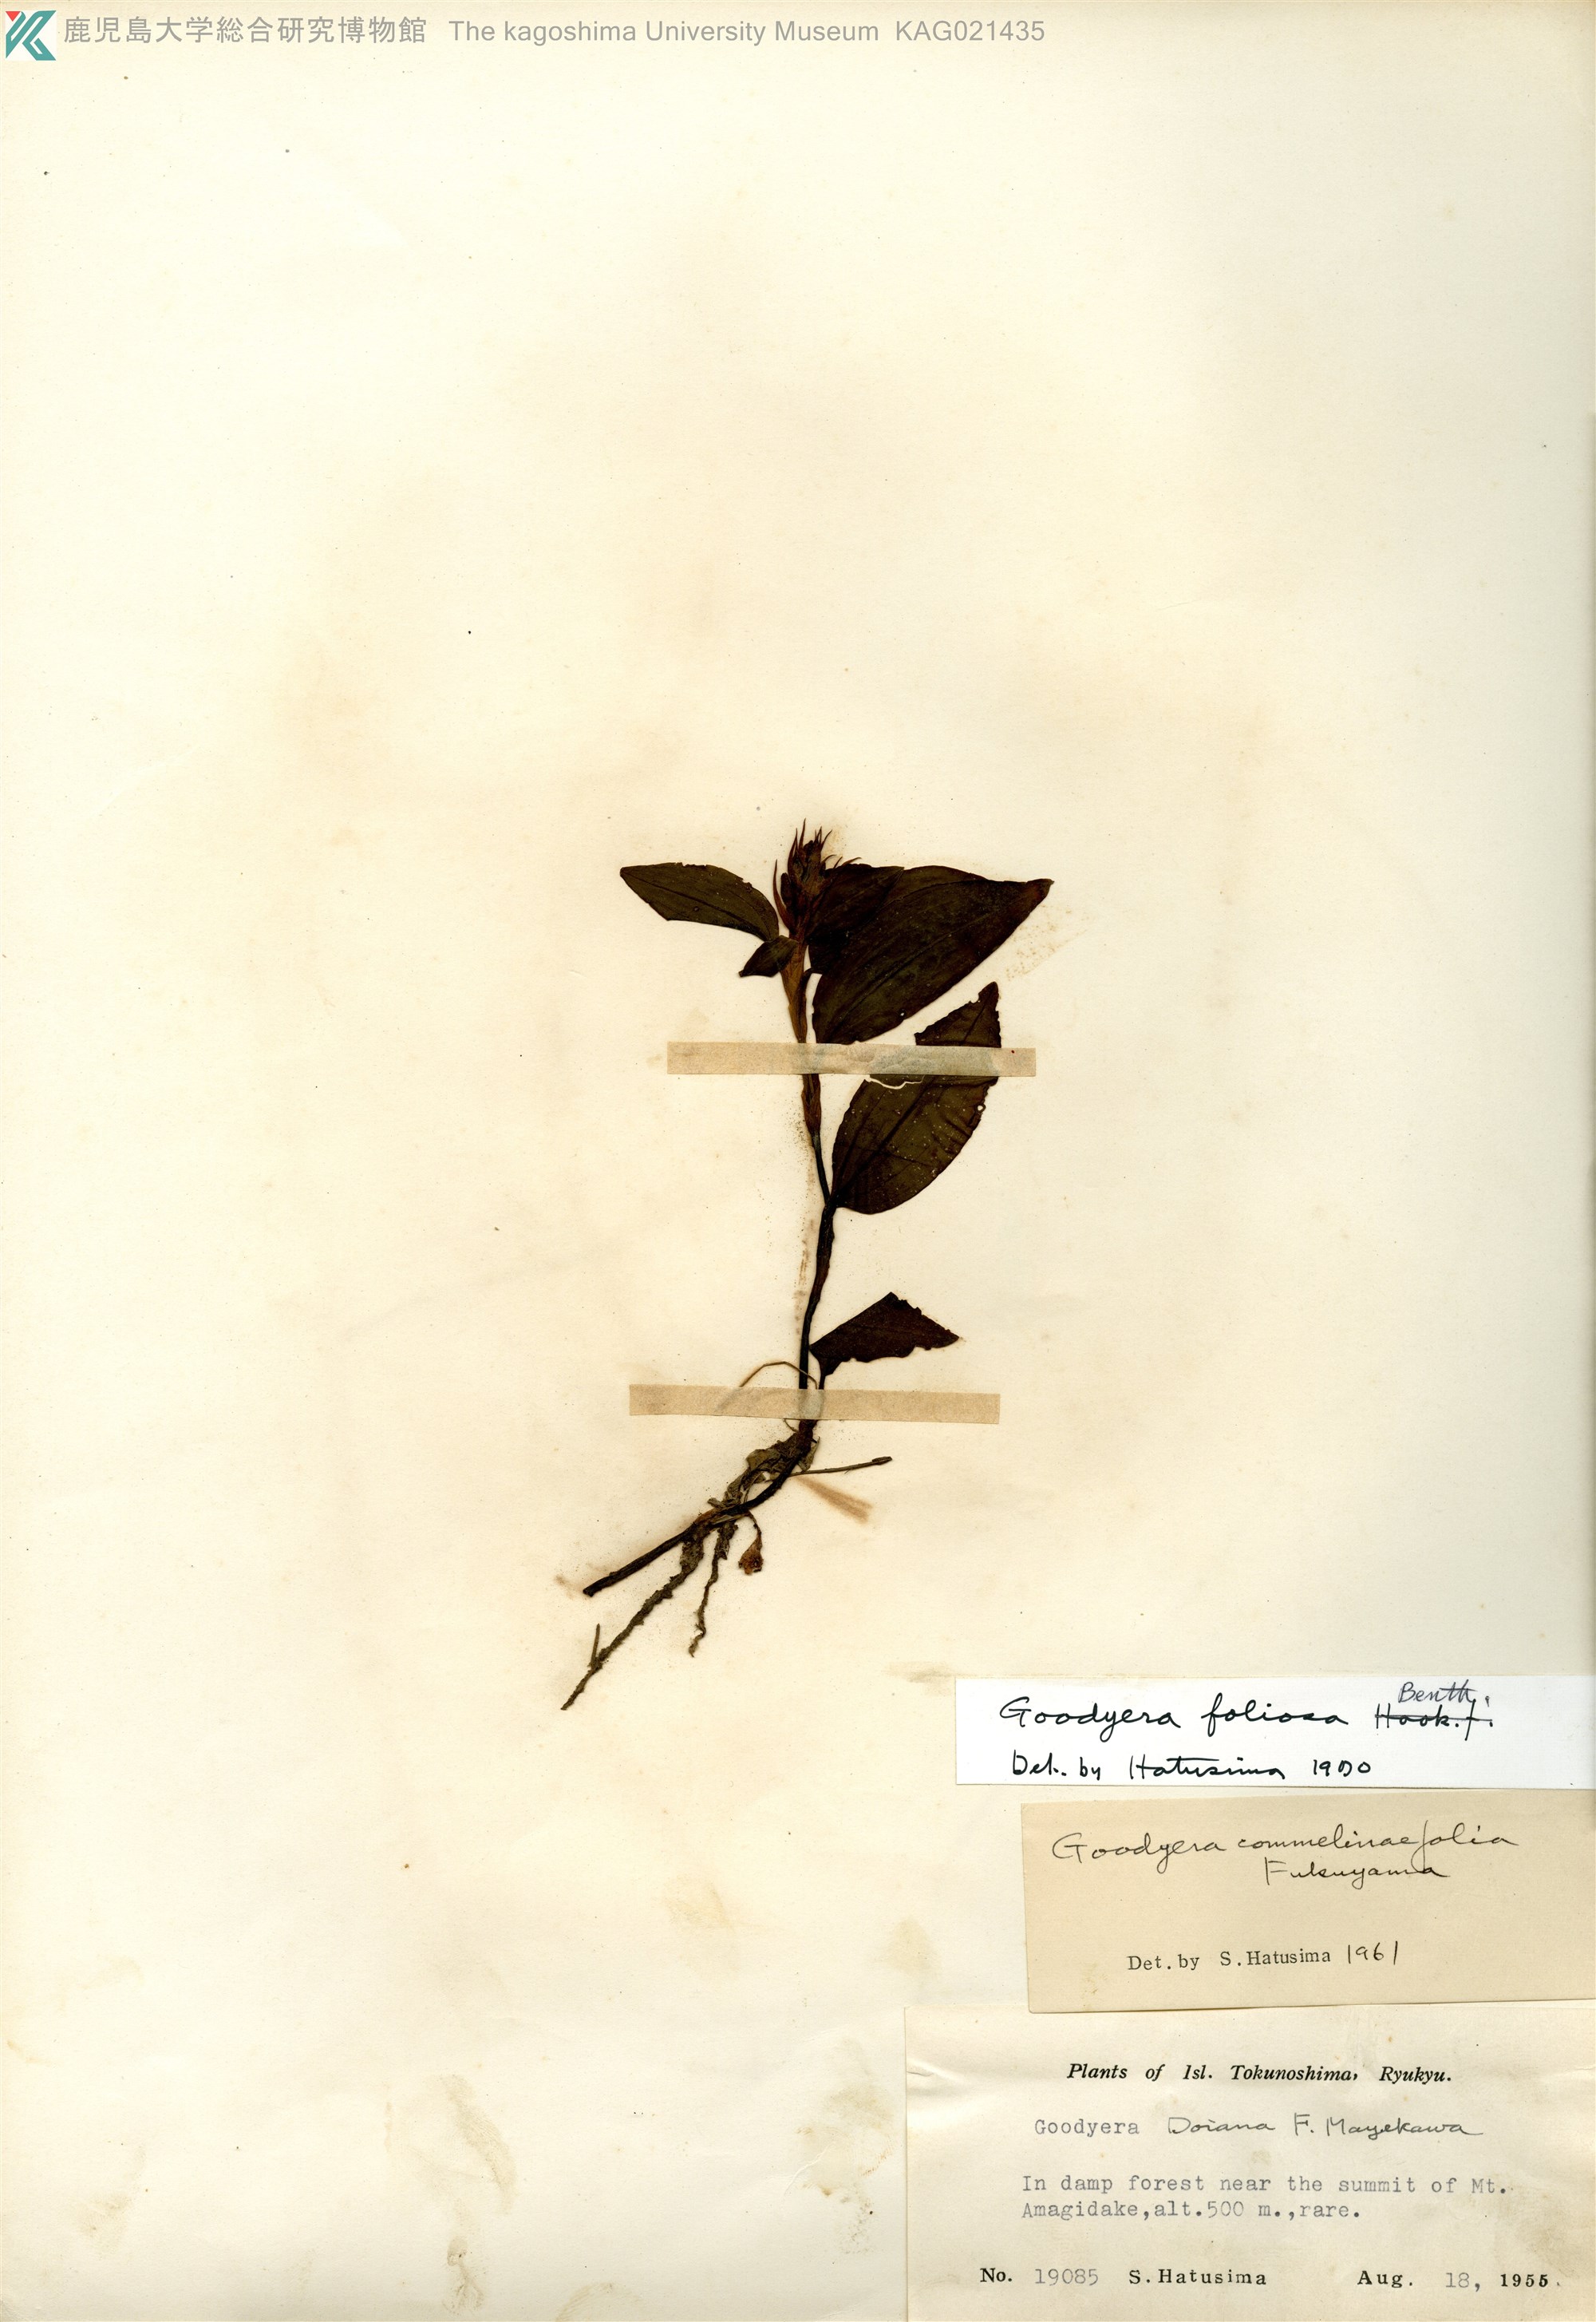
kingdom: Plantae
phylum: Tracheophyta
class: Liliopsida
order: Asparagales
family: Orchidaceae
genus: Goodyera
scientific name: Goodyera foliosa
